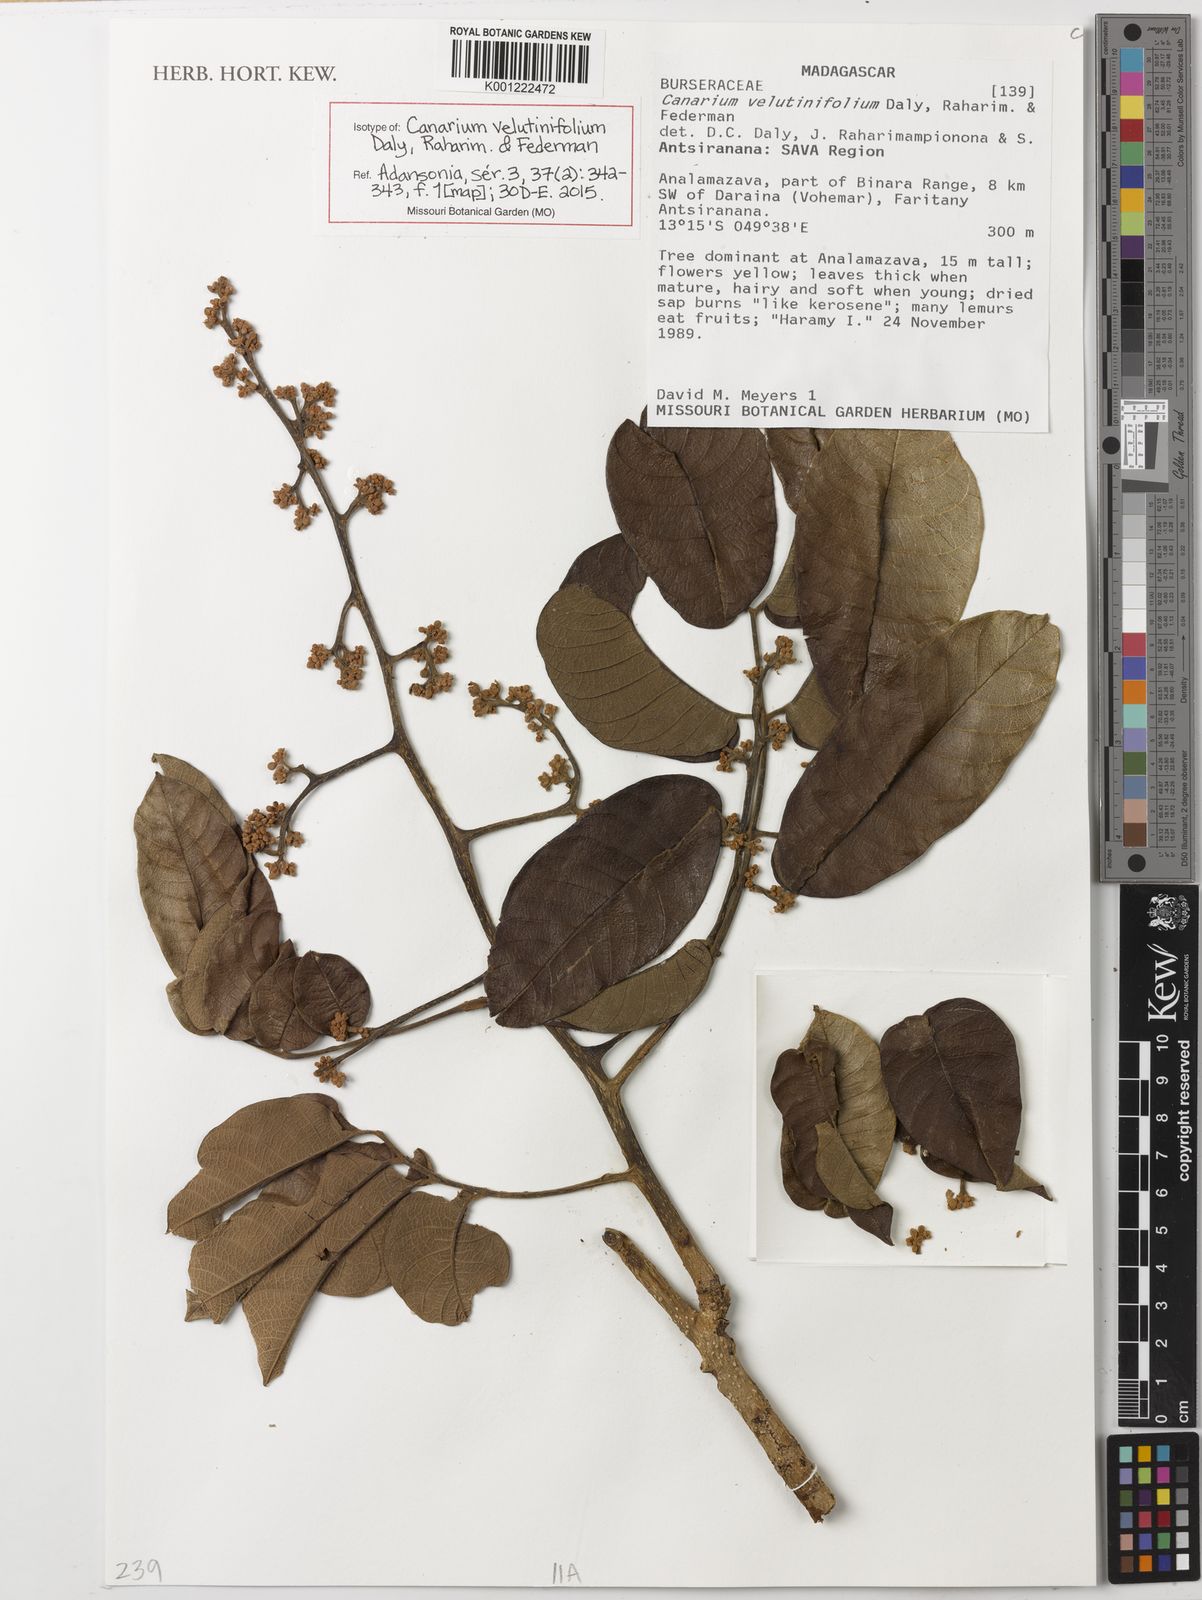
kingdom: Plantae
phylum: Tracheophyta
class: Magnoliopsida
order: Sapindales
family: Burseraceae
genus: Canarium
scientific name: Canarium velutinifolium
